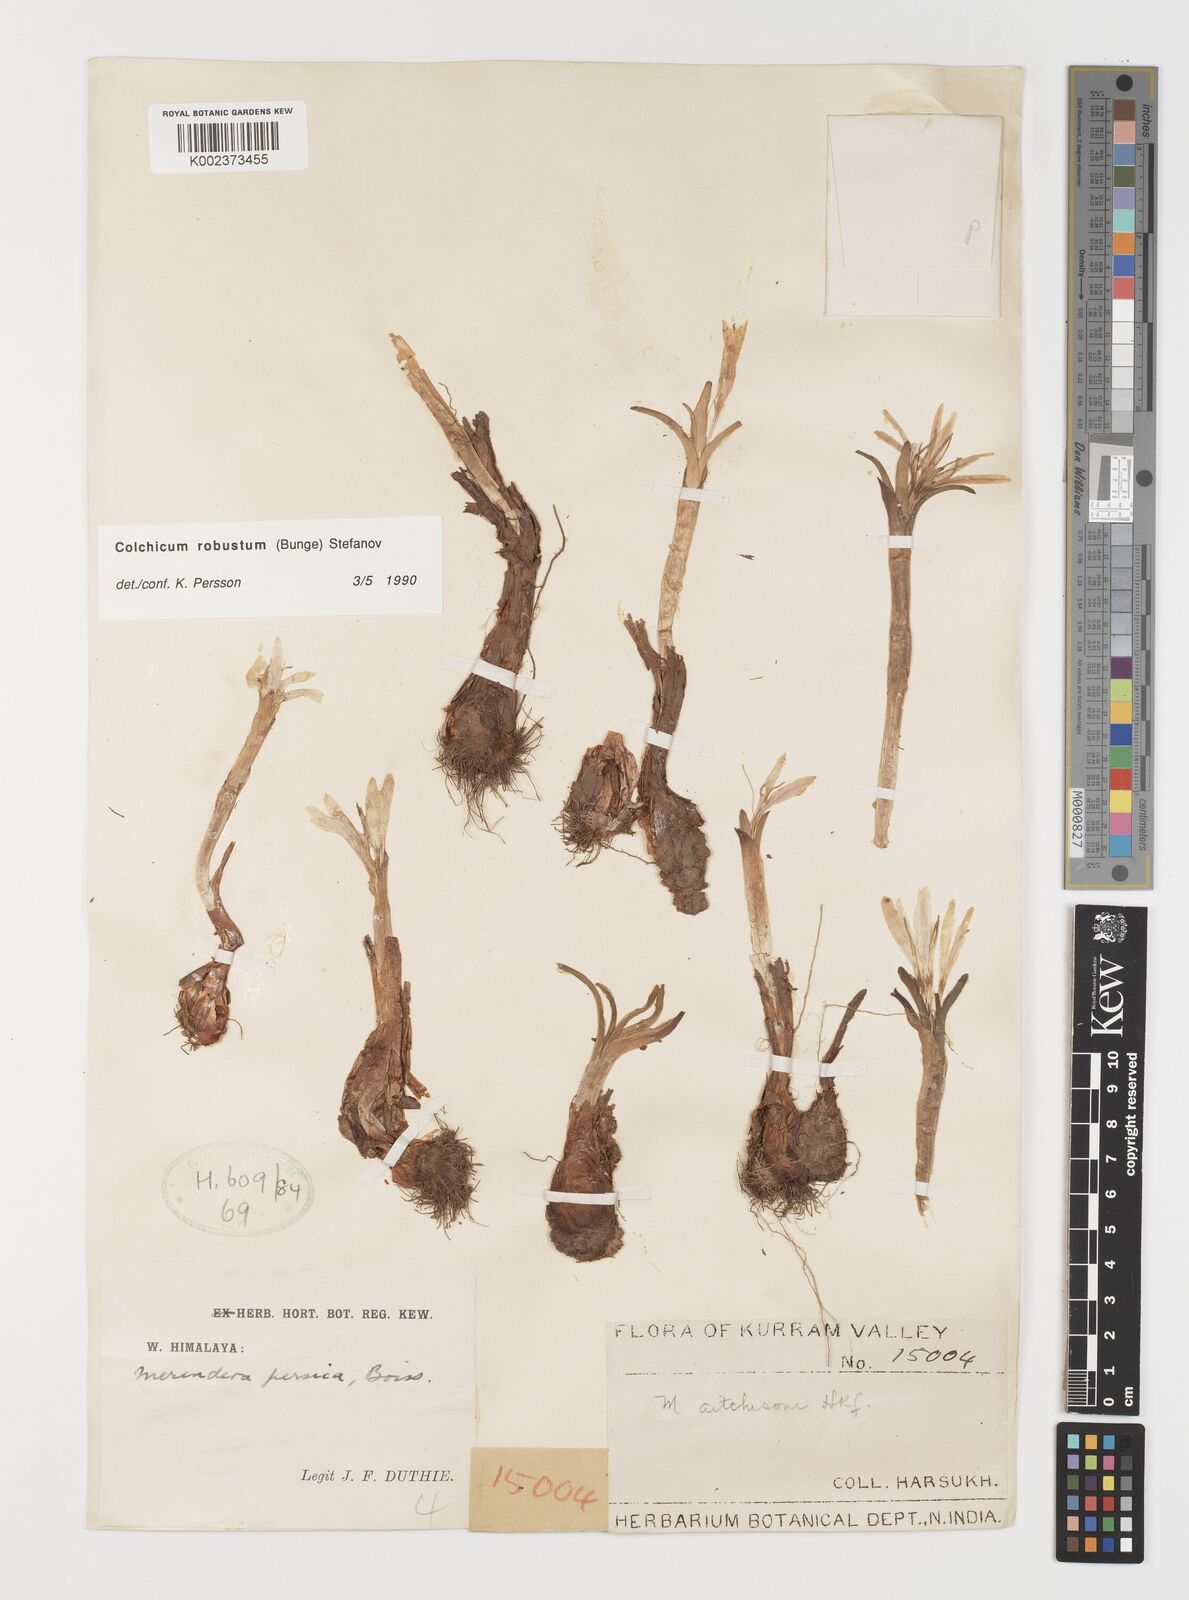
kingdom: Plantae
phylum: Tracheophyta
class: Liliopsida
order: Liliales
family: Colchicaceae
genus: Colchicum
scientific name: Colchicum robustum
